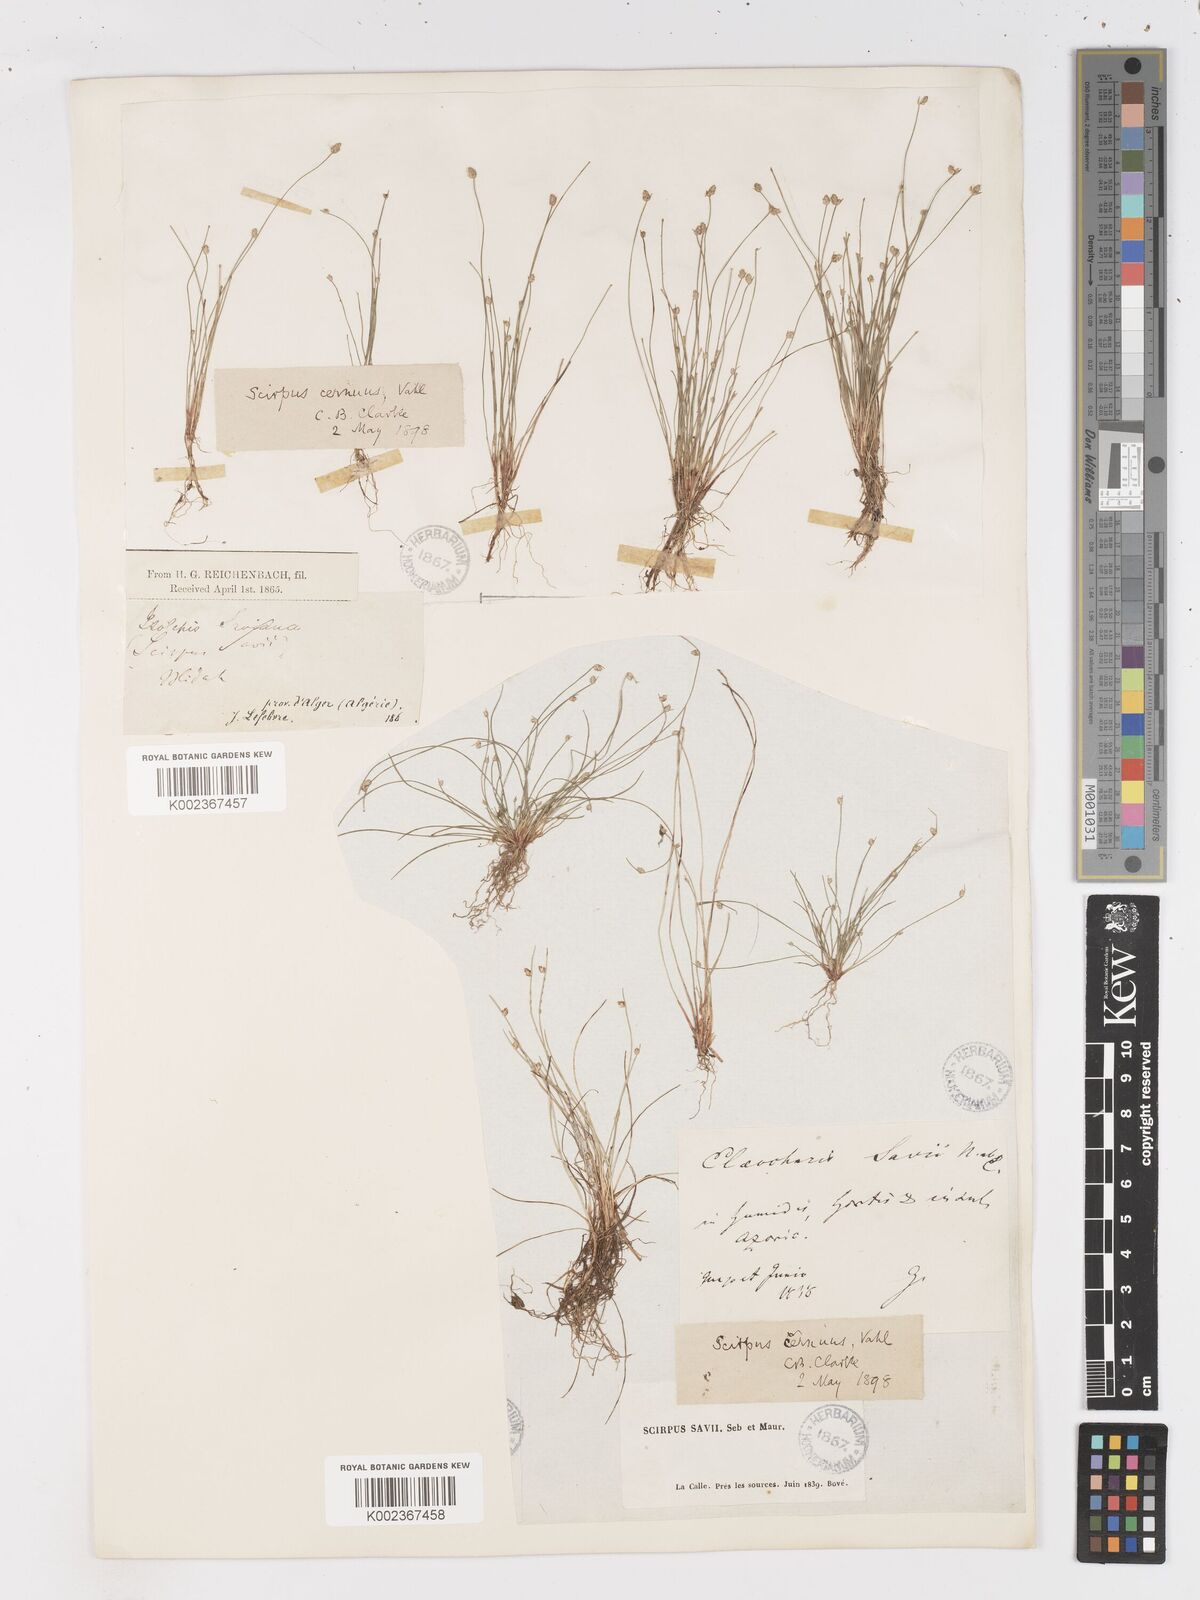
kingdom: Plantae
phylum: Tracheophyta
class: Liliopsida
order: Poales
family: Cyperaceae
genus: Isolepis
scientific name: Isolepis cernua
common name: Slender club-rush
